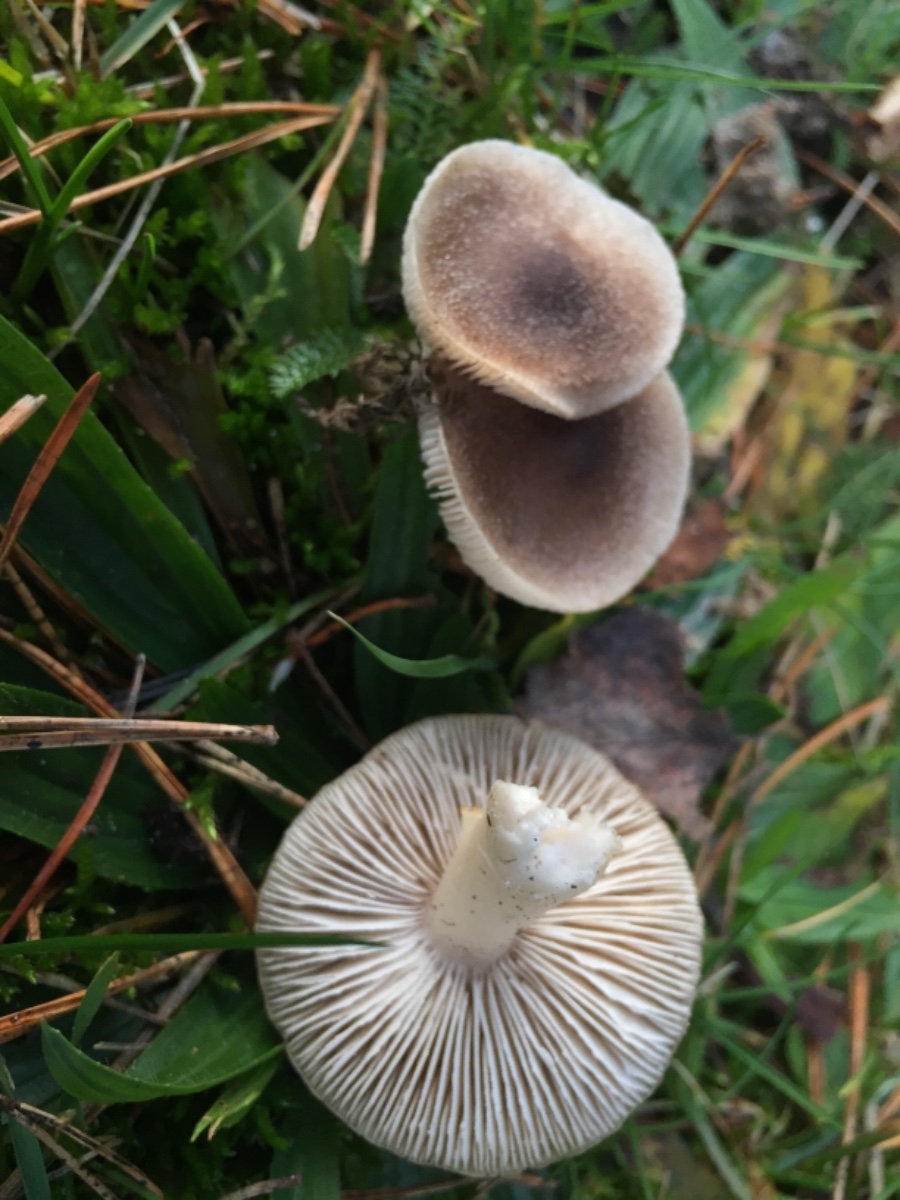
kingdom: Fungi
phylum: Basidiomycota
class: Agaricomycetes
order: Agaricales
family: Tricholomataceae
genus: Tricholoma
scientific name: Tricholoma
